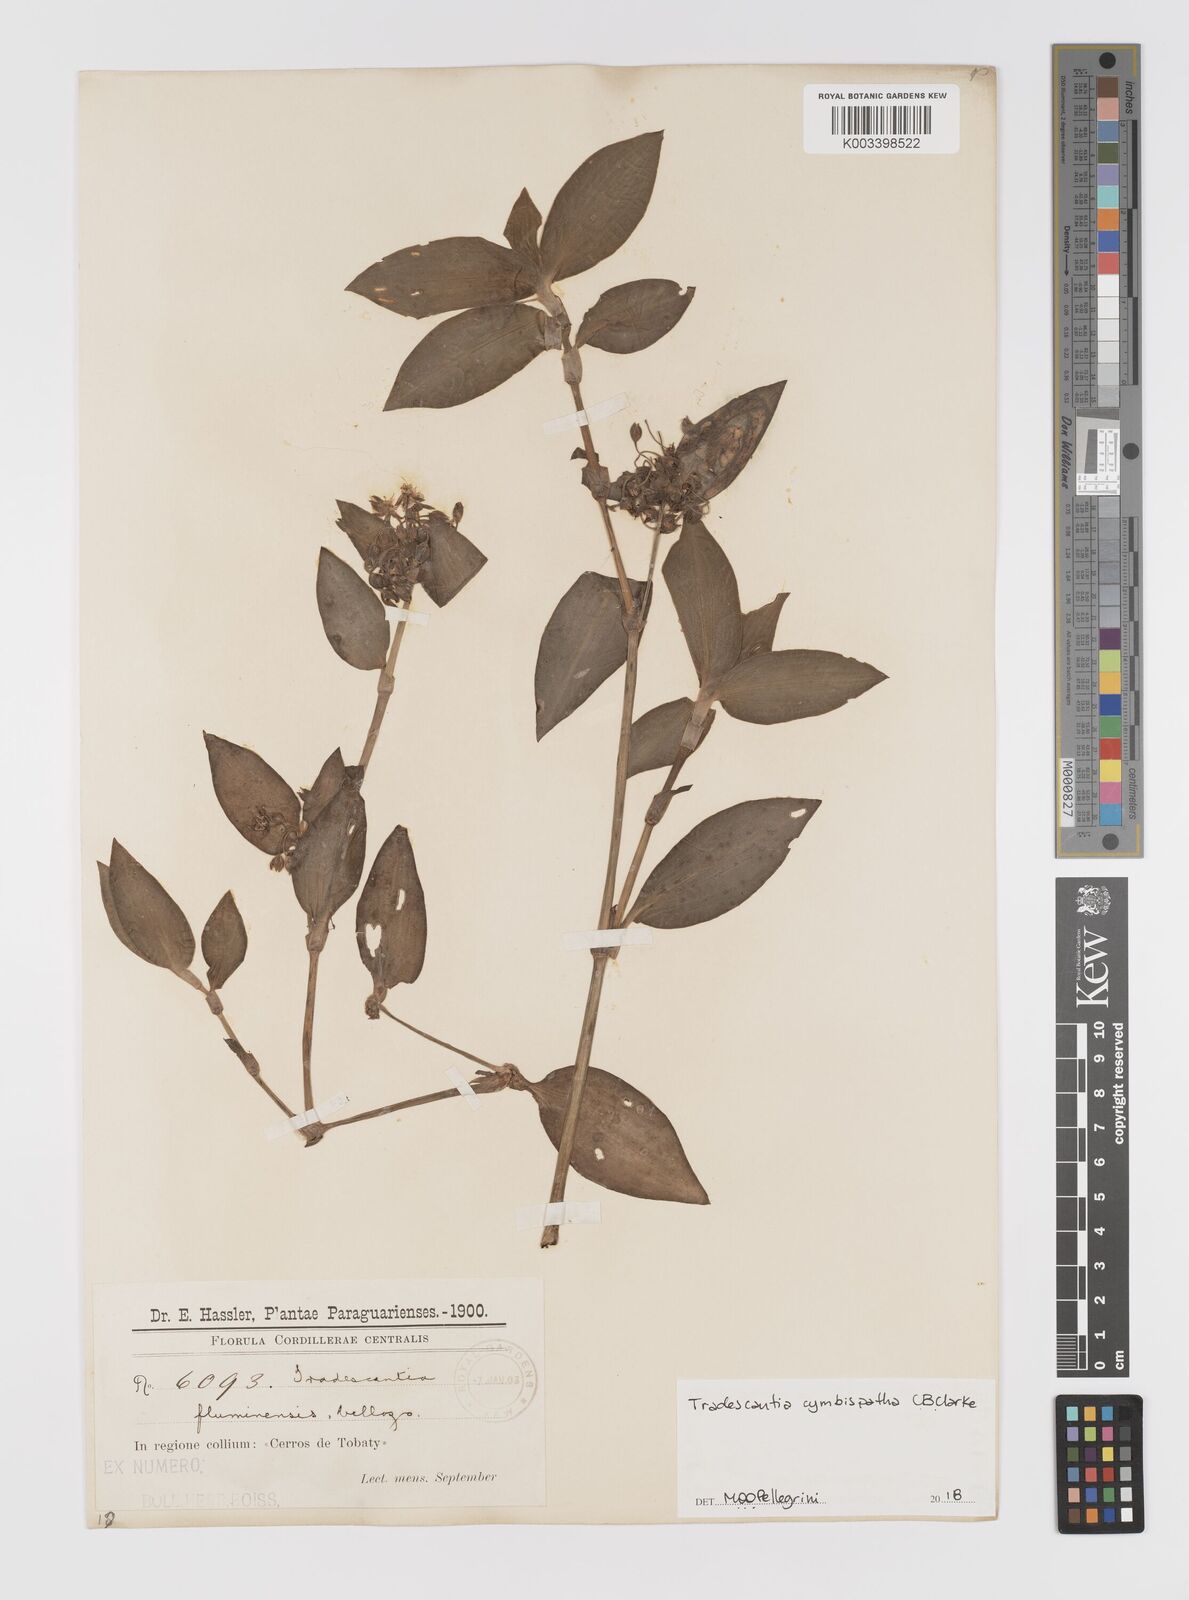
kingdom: Plantae
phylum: Tracheophyta
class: Liliopsida
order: Commelinales
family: Commelinaceae
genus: Tradescantia
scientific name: Tradescantia cymbispatha
